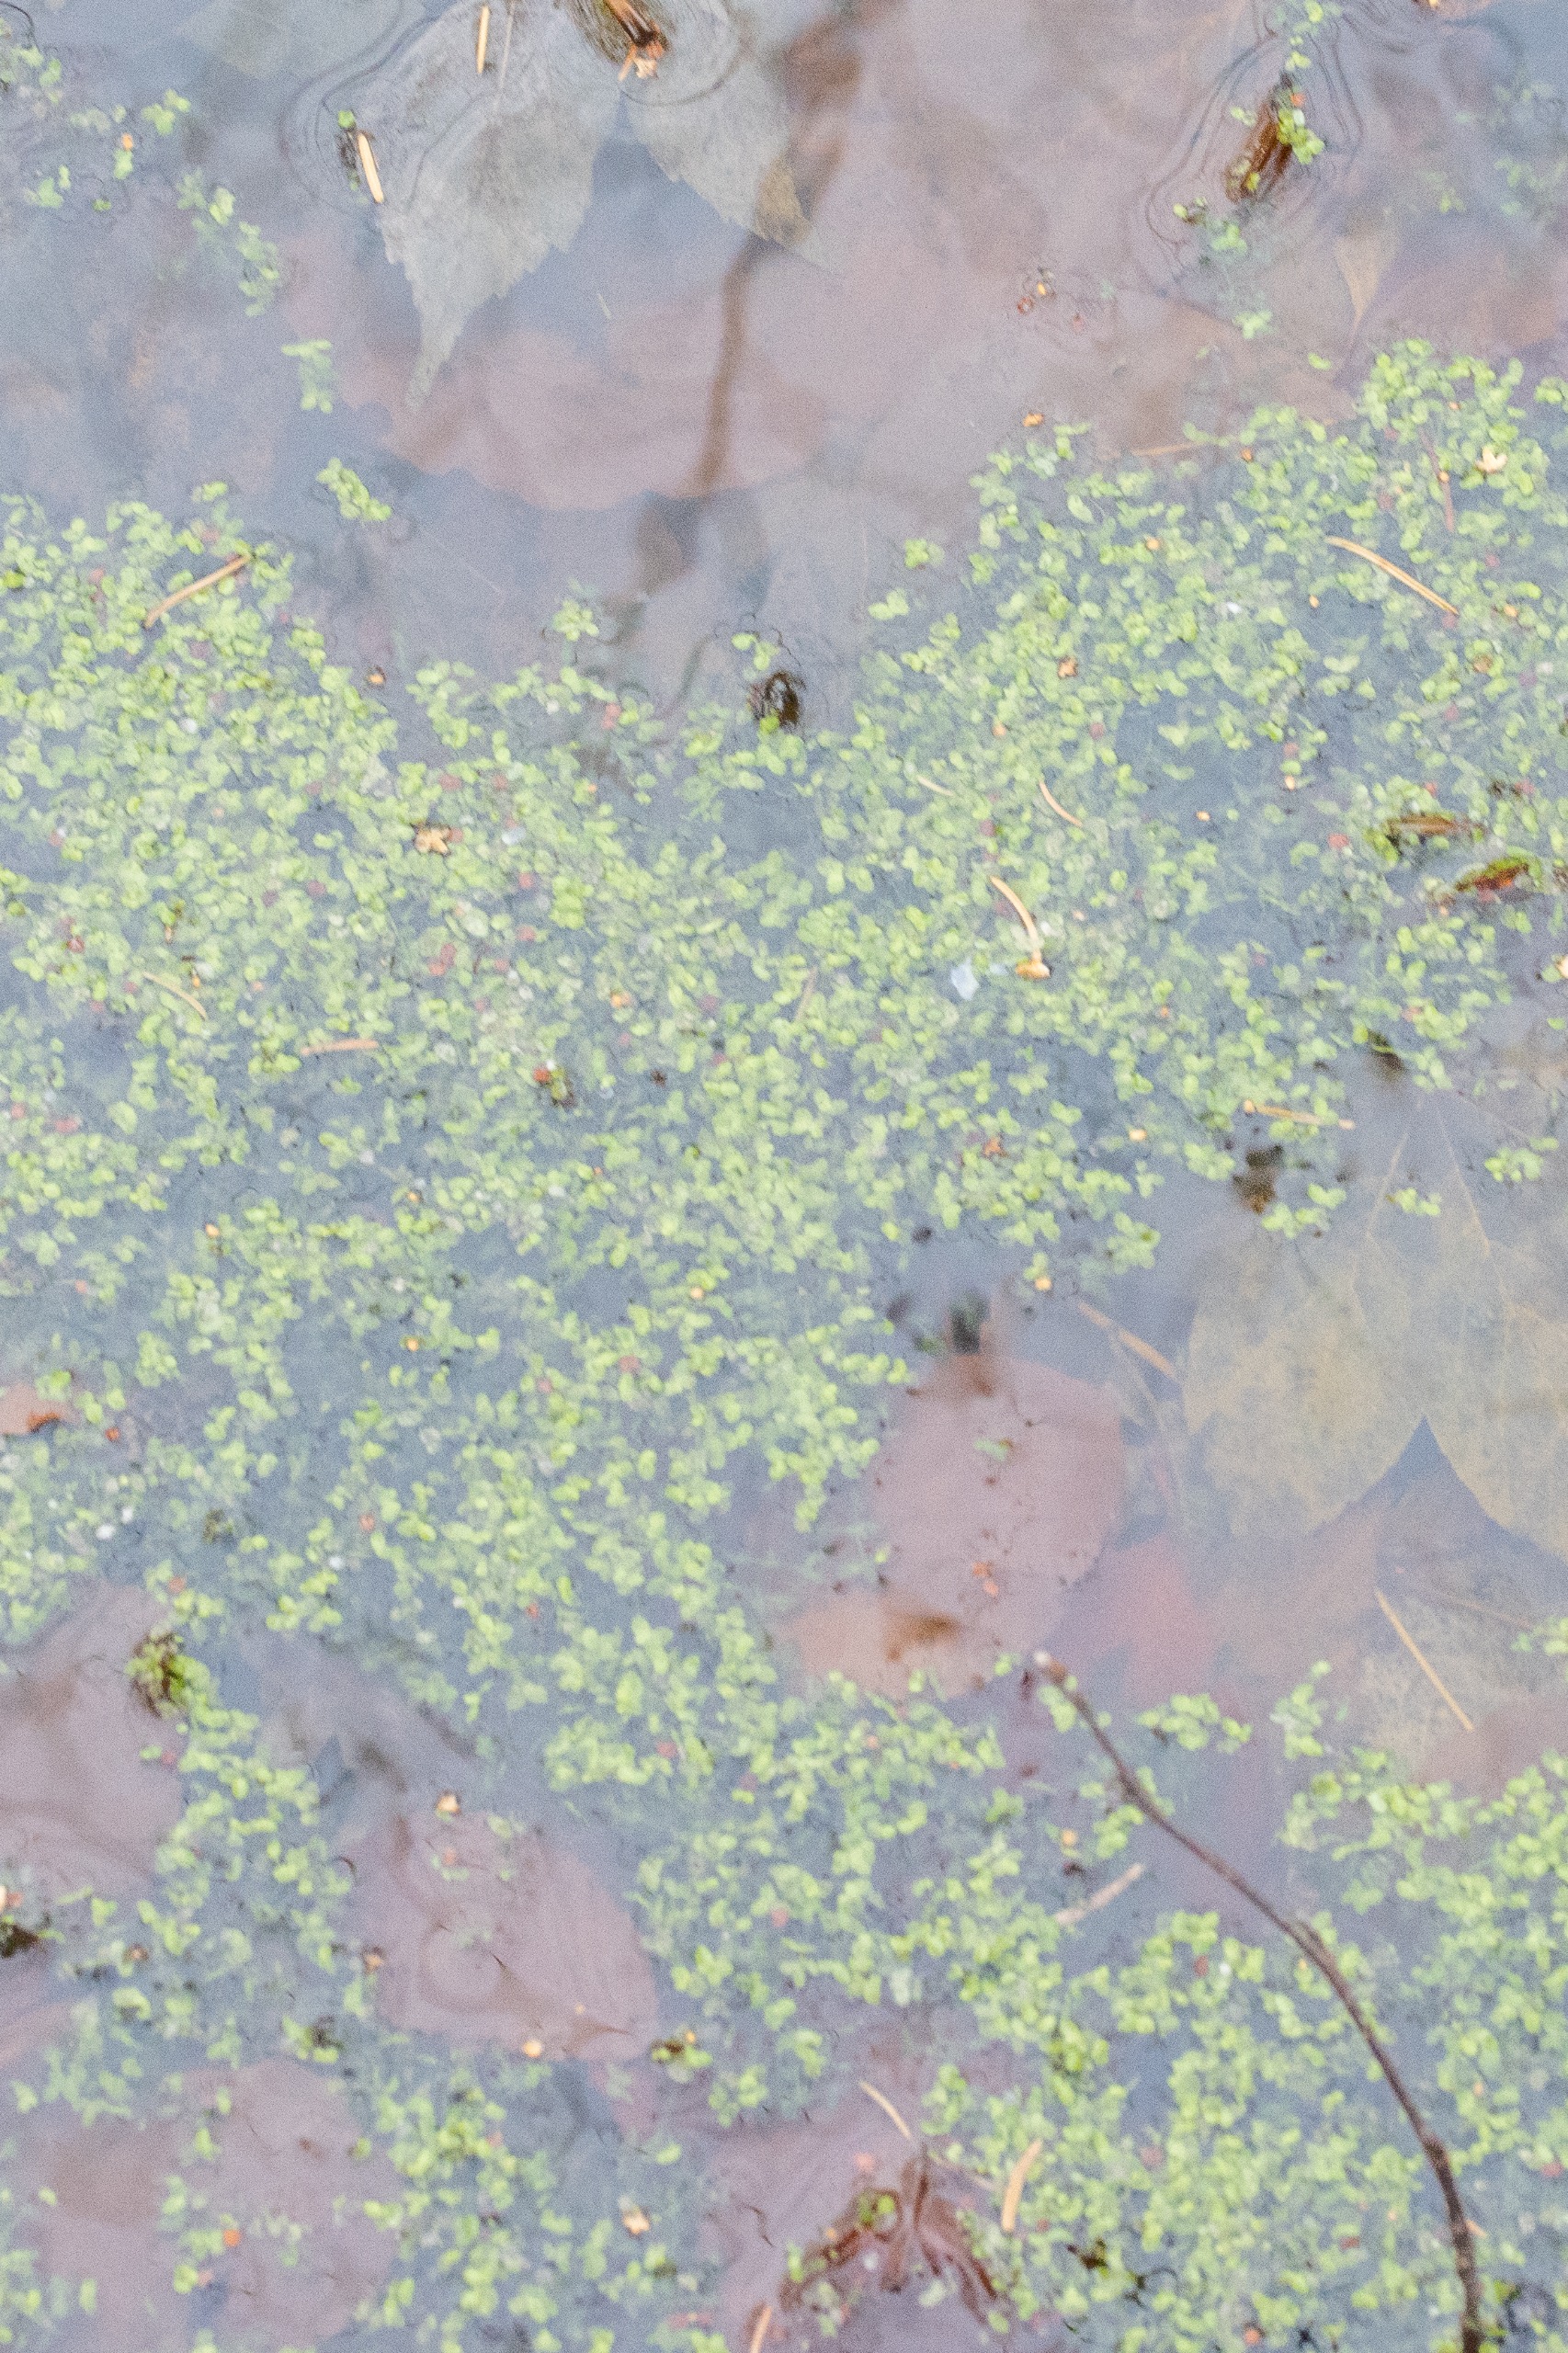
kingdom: Plantae
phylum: Tracheophyta
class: Liliopsida
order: Alismatales
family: Araceae
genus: Lemna
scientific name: Lemna trisulca
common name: Kors-andemad
